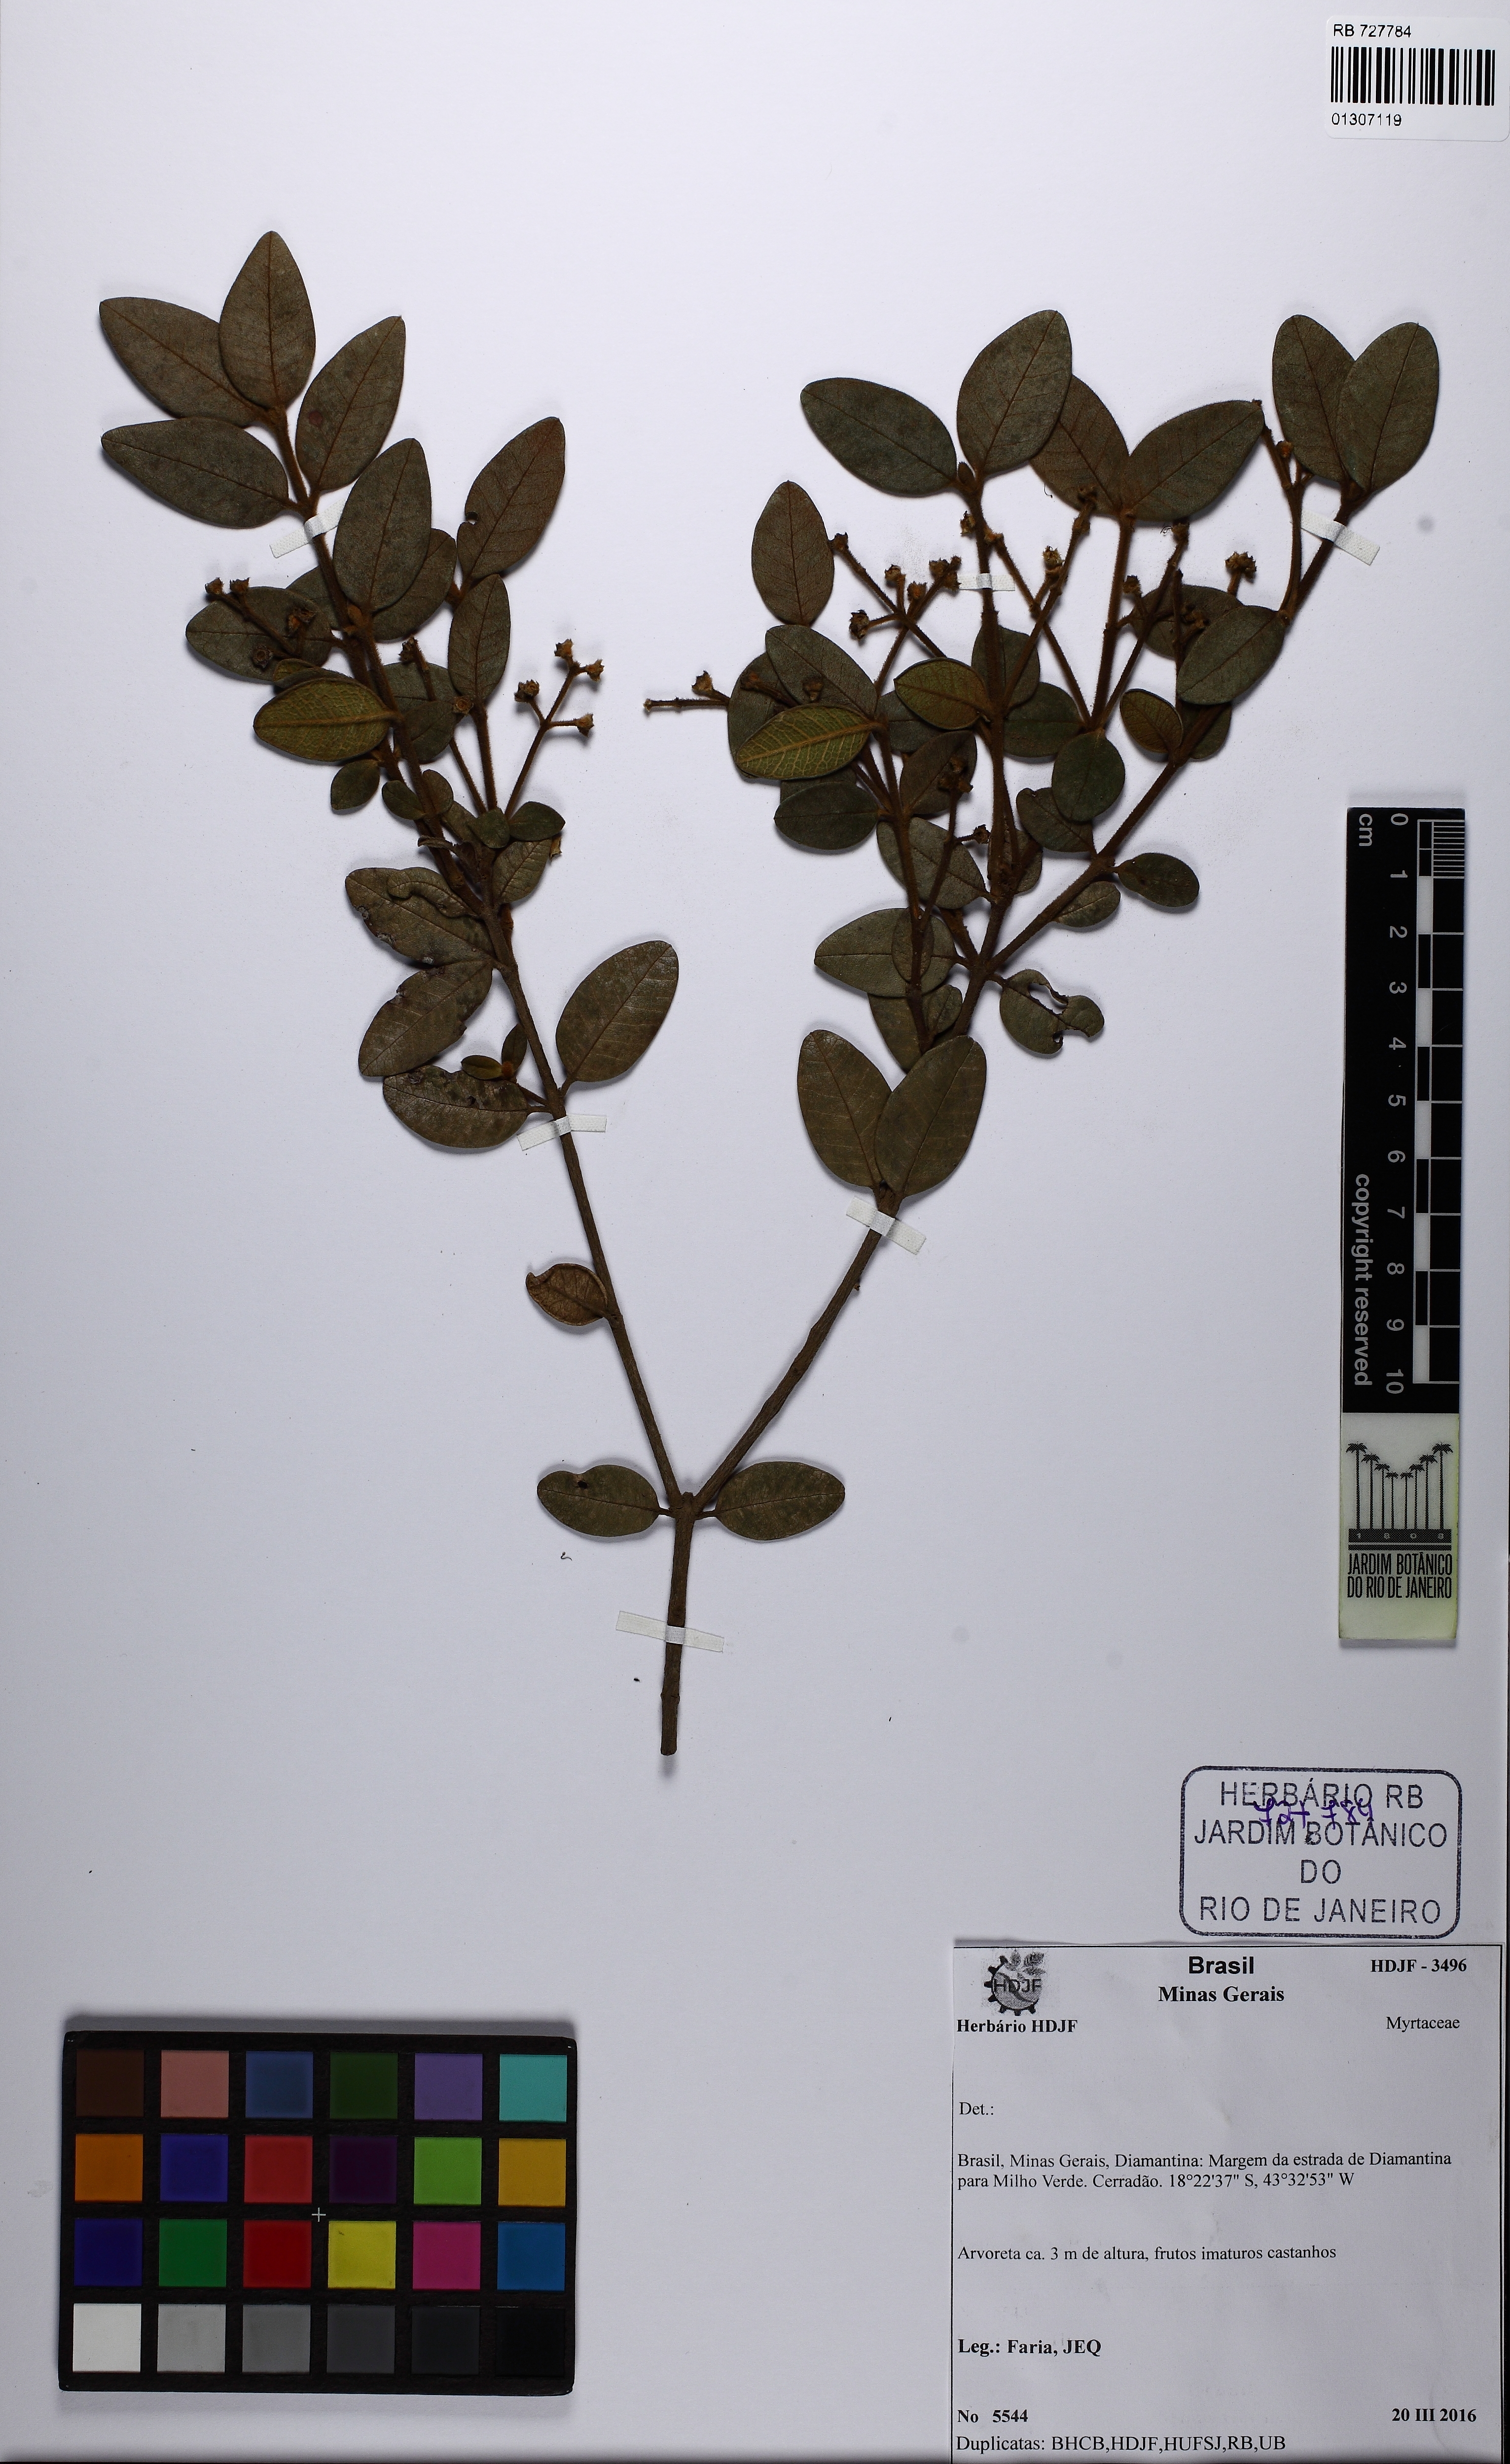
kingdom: Plantae
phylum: Tracheophyta
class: Magnoliopsida
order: Myrtales
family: Myrtaceae
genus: Myrcia
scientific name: Myrcia eriocalyx
